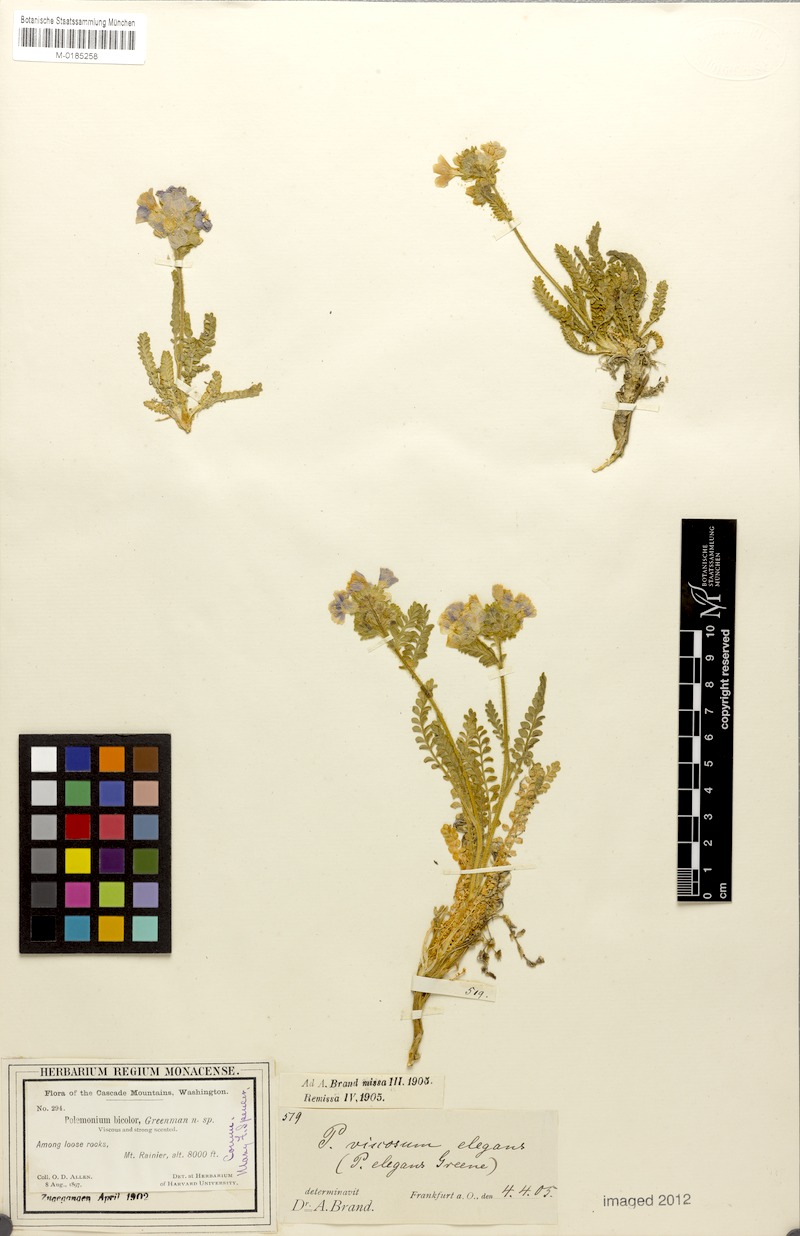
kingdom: Plantae
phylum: Tracheophyta
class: Magnoliopsida
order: Ericales
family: Polemoniaceae
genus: Polemonium
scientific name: Polemonium viscosum
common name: Skunk jacob's-ladder
